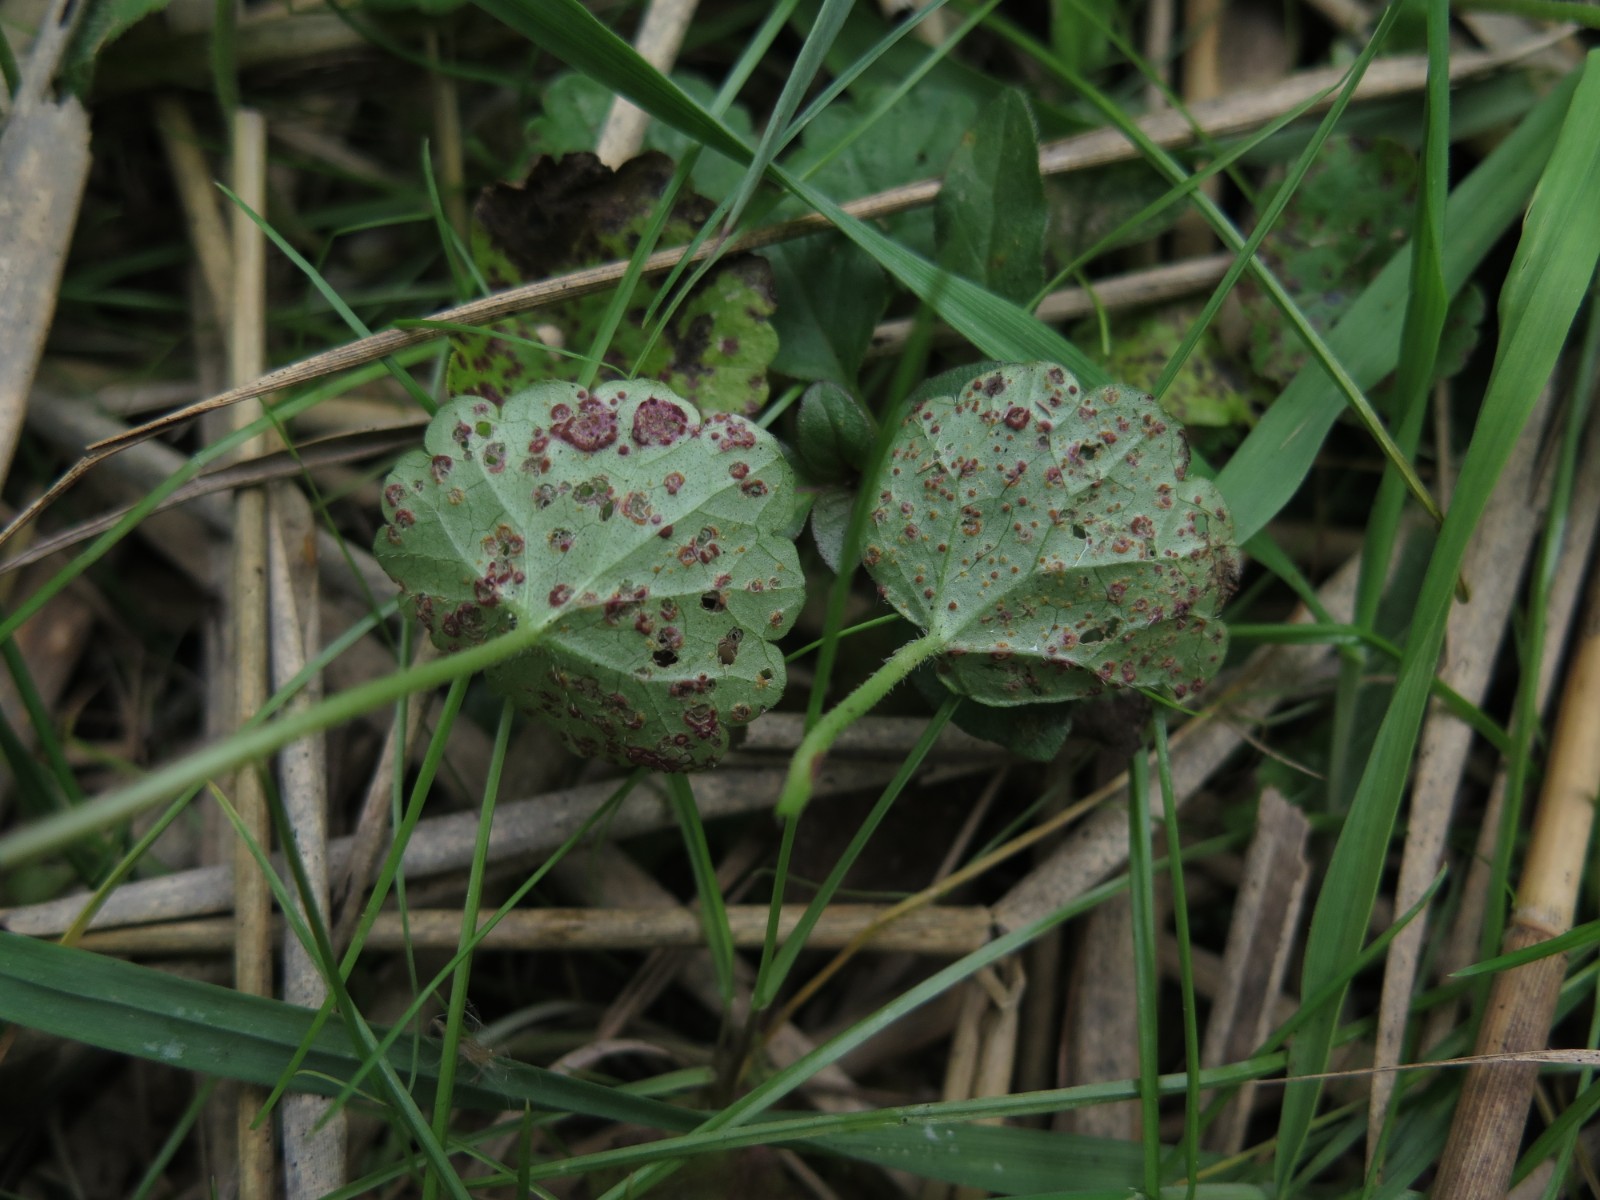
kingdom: Fungi
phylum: Basidiomycota
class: Pucciniomycetes
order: Pucciniales
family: Pucciniaceae
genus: Puccinia
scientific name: Puccinia glechomatis
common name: Ground ivy rust
